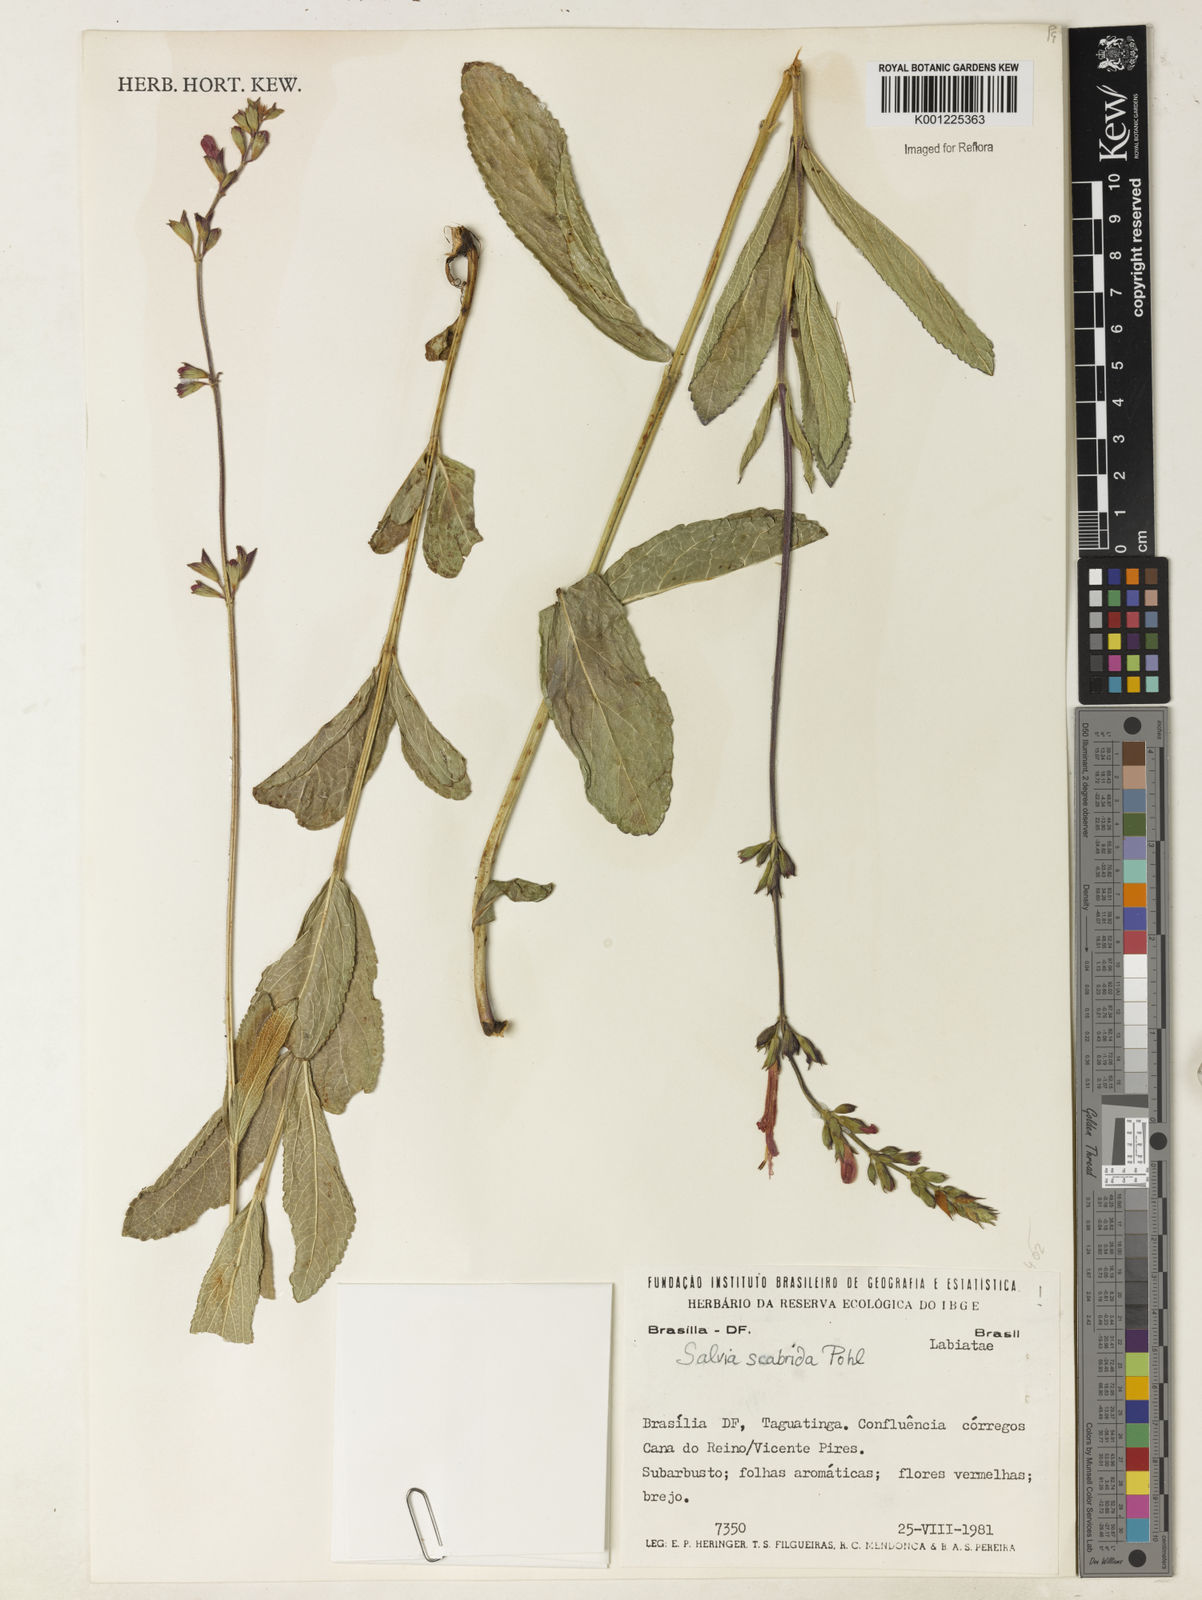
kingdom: Plantae
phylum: Tracheophyta
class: Magnoliopsida
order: Lamiales
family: Lamiaceae
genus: Salvia
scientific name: Salvia scabrida
